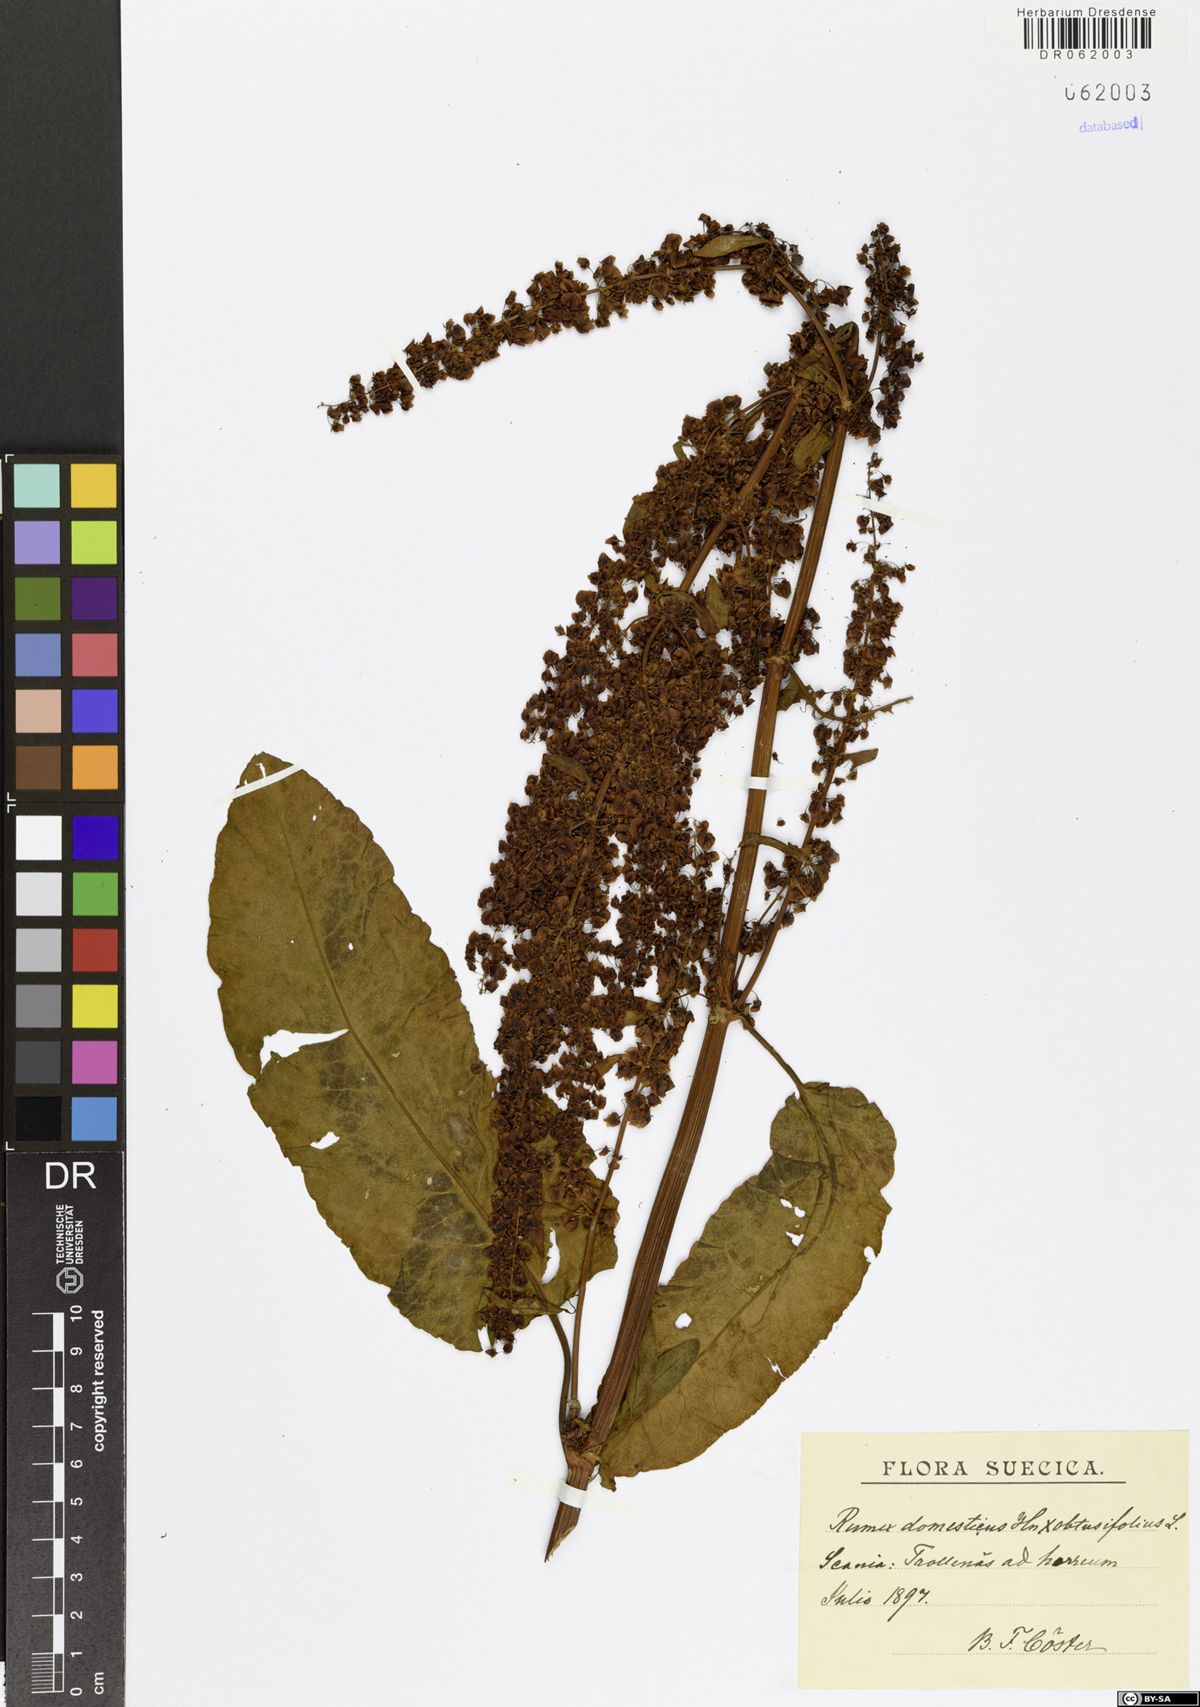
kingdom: Plantae
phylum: Tracheophyta
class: Magnoliopsida
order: Caryophyllales
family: Polygonaceae
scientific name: Polygonaceae
